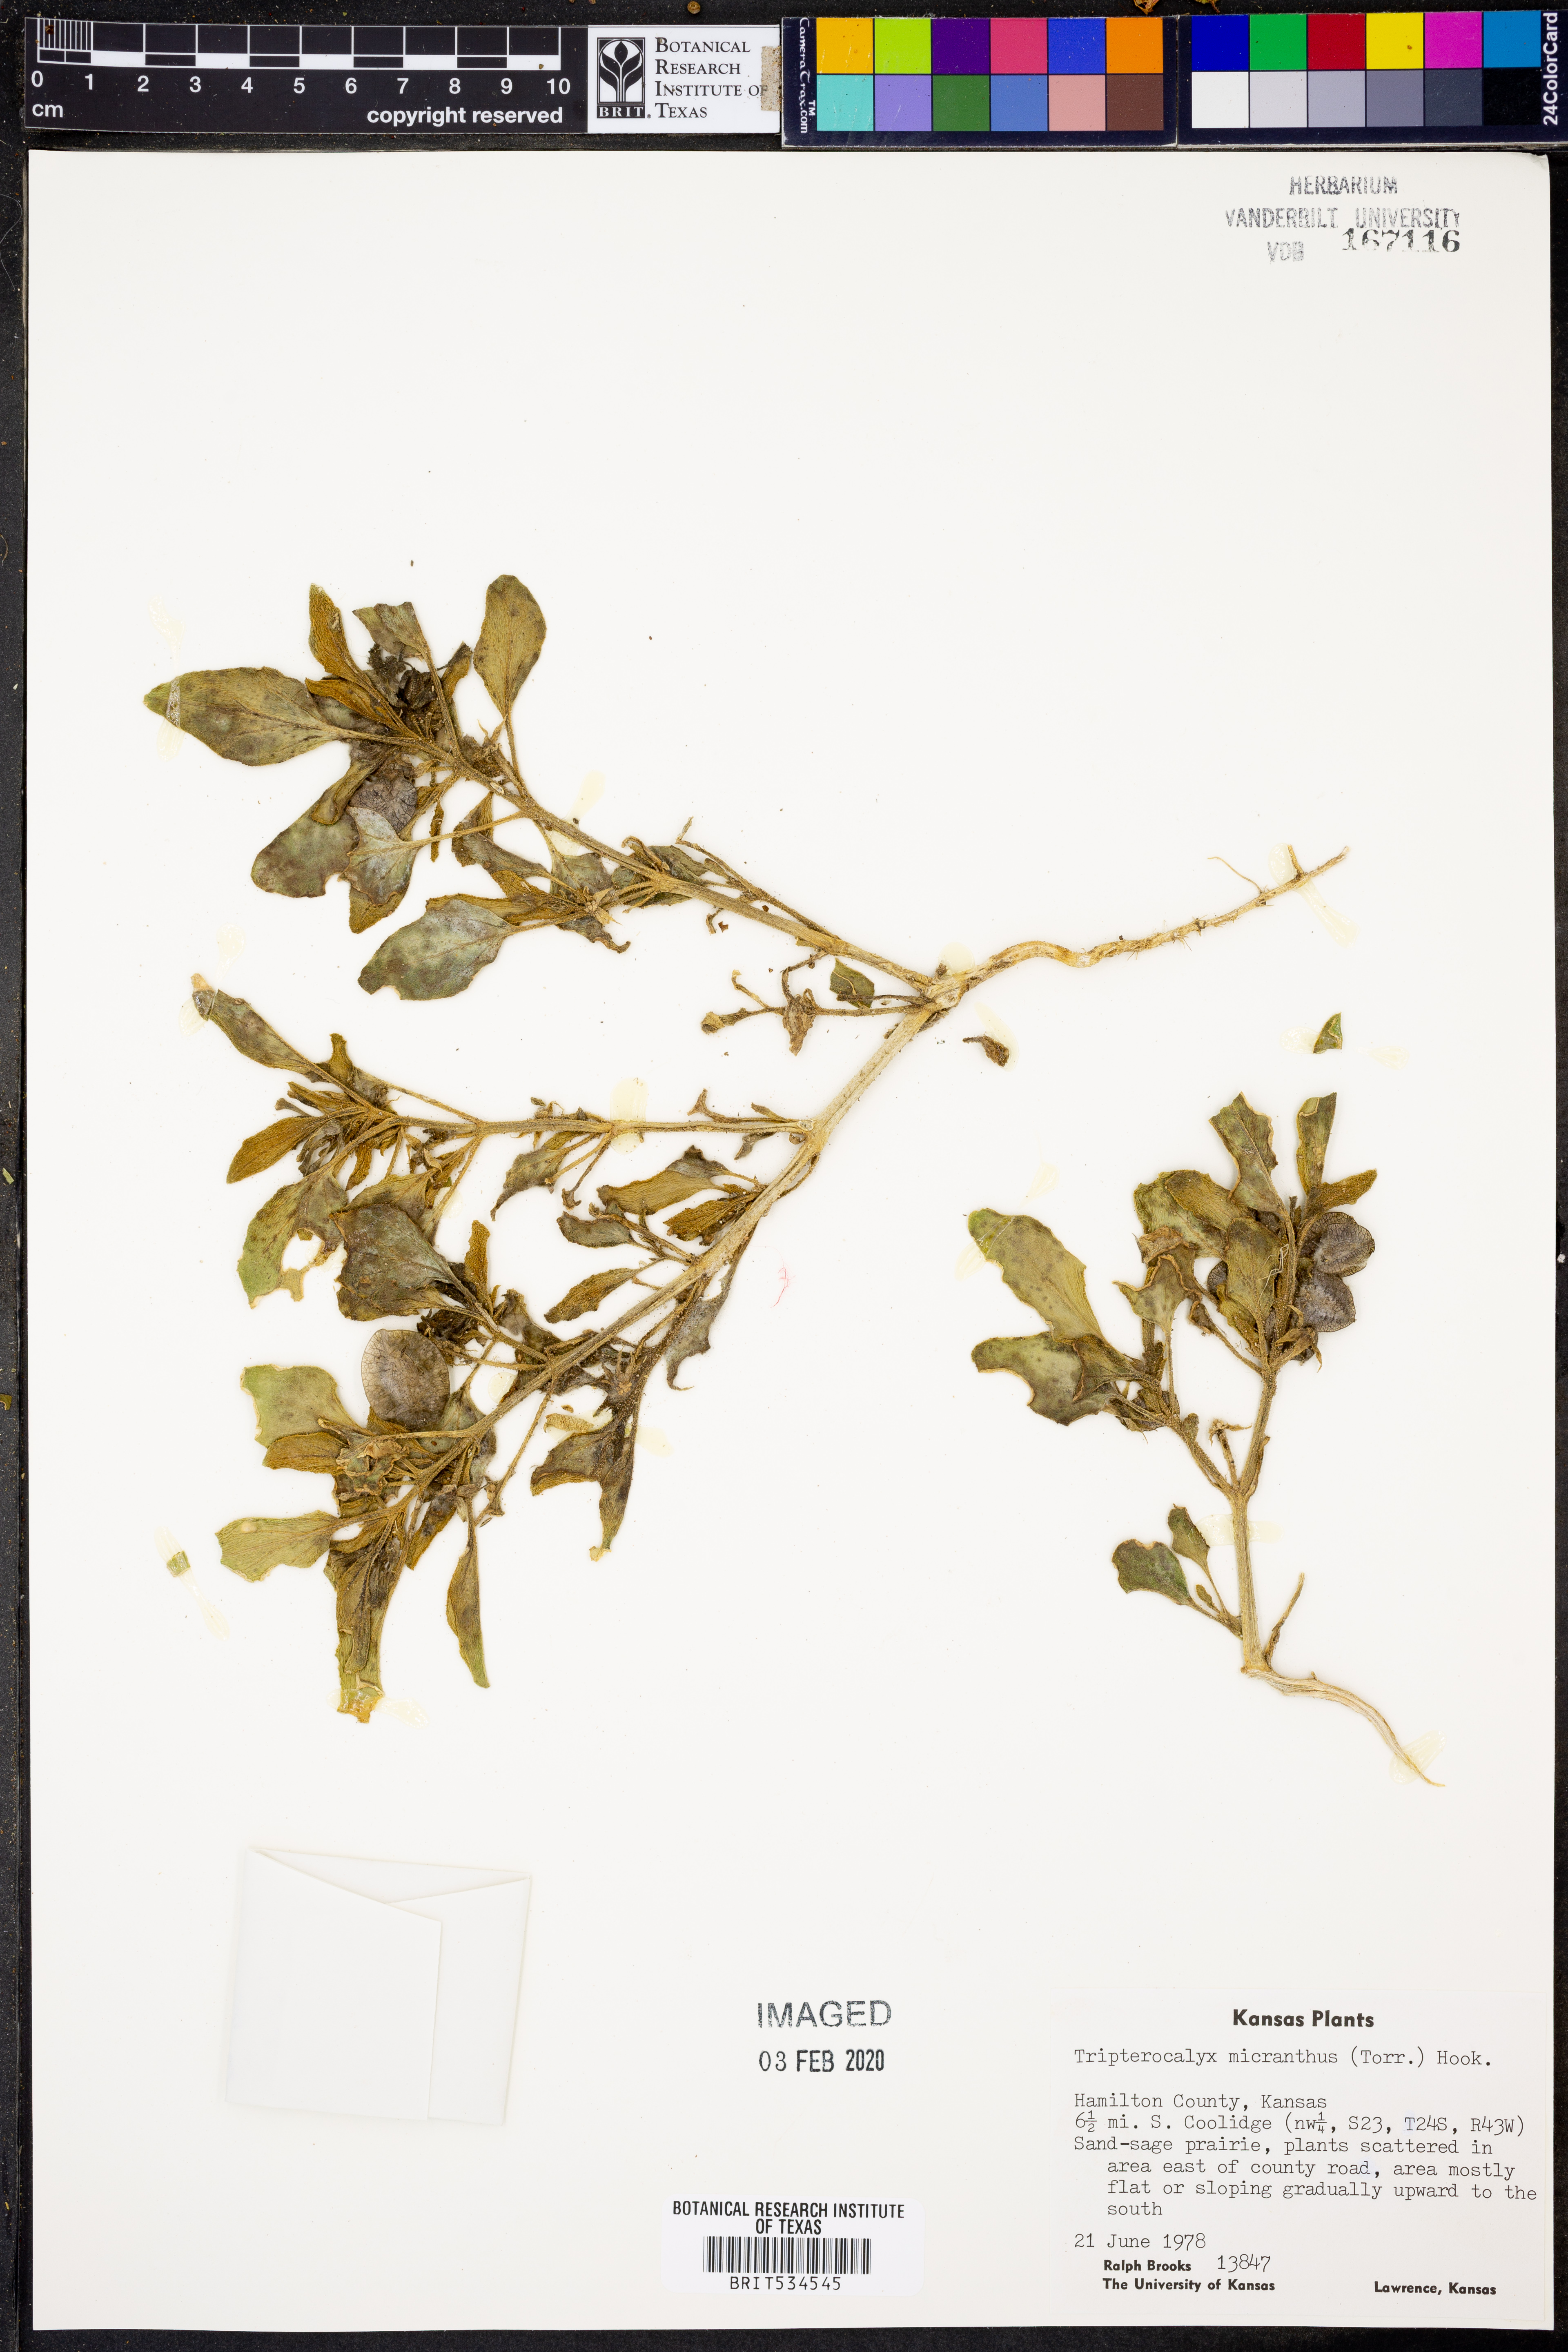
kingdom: Plantae
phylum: Tracheophyta
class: Magnoliopsida
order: Caryophyllales
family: Nyctaginaceae
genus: Tripterocalyx
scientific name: Tripterocalyx micranthus
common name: Small-flowered sand-verbena
